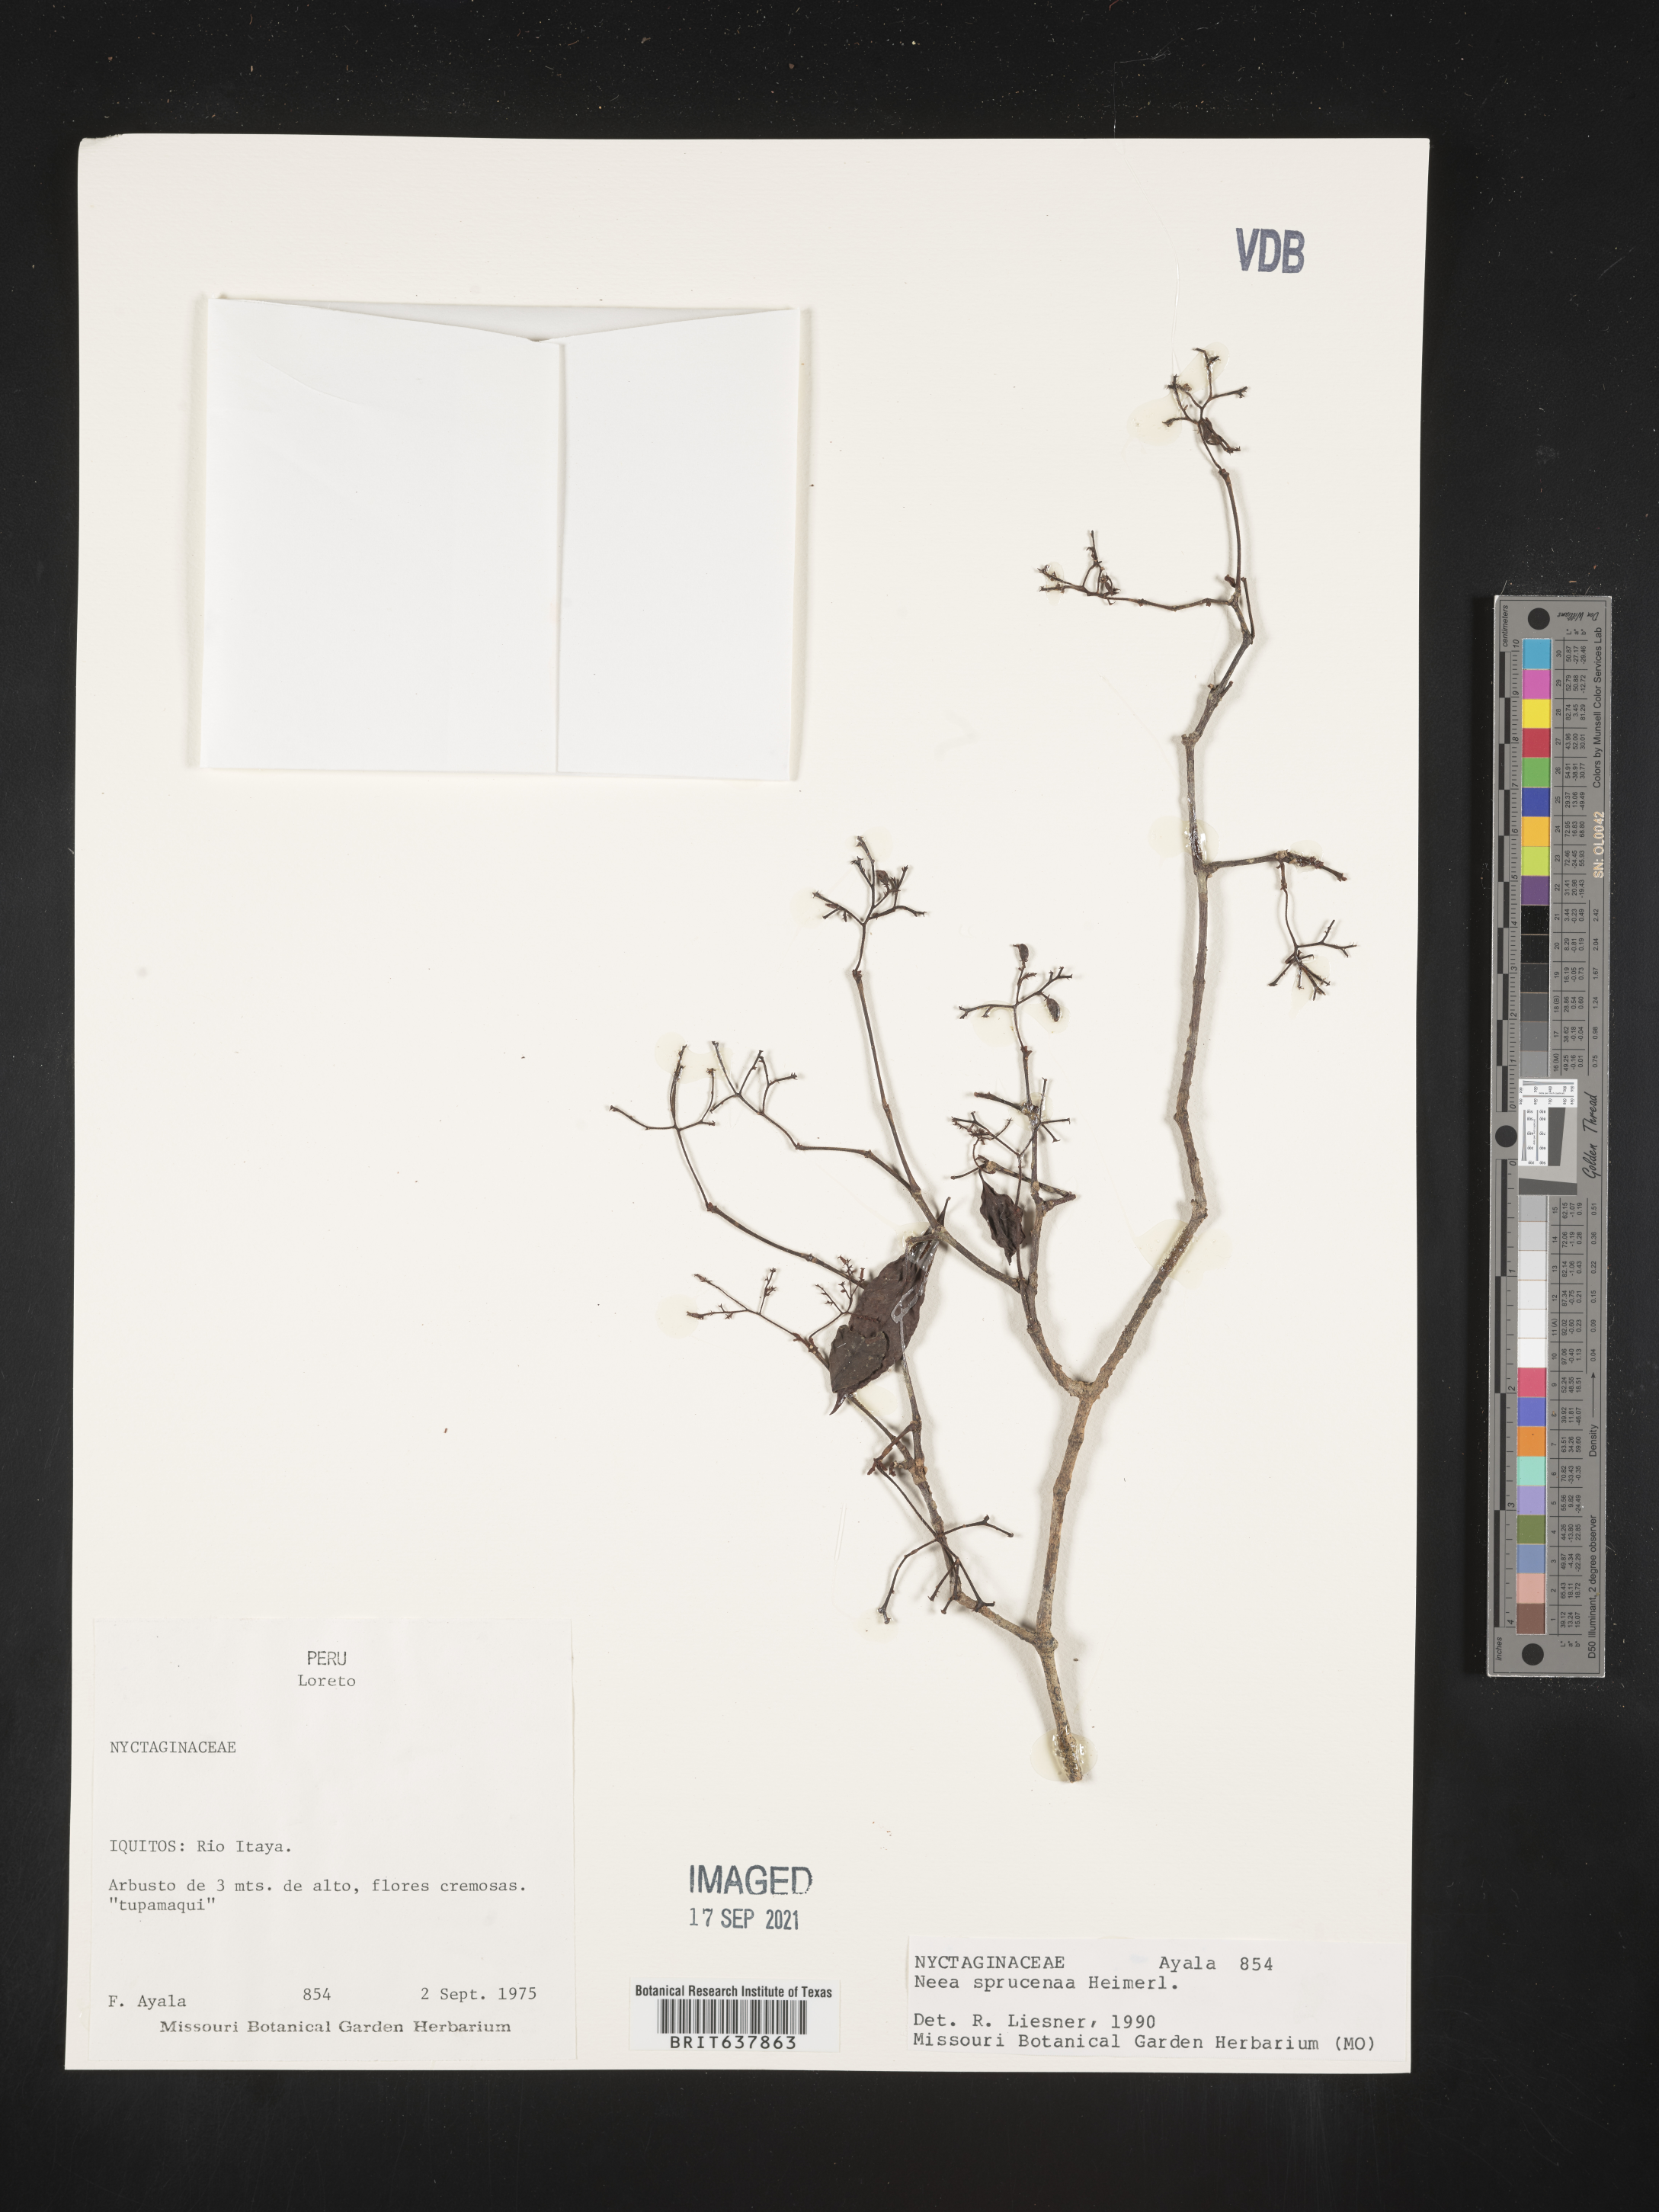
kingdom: Plantae
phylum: Tracheophyta
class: Magnoliopsida
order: Caryophyllales
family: Nyctaginaceae
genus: Neea
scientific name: Neea
